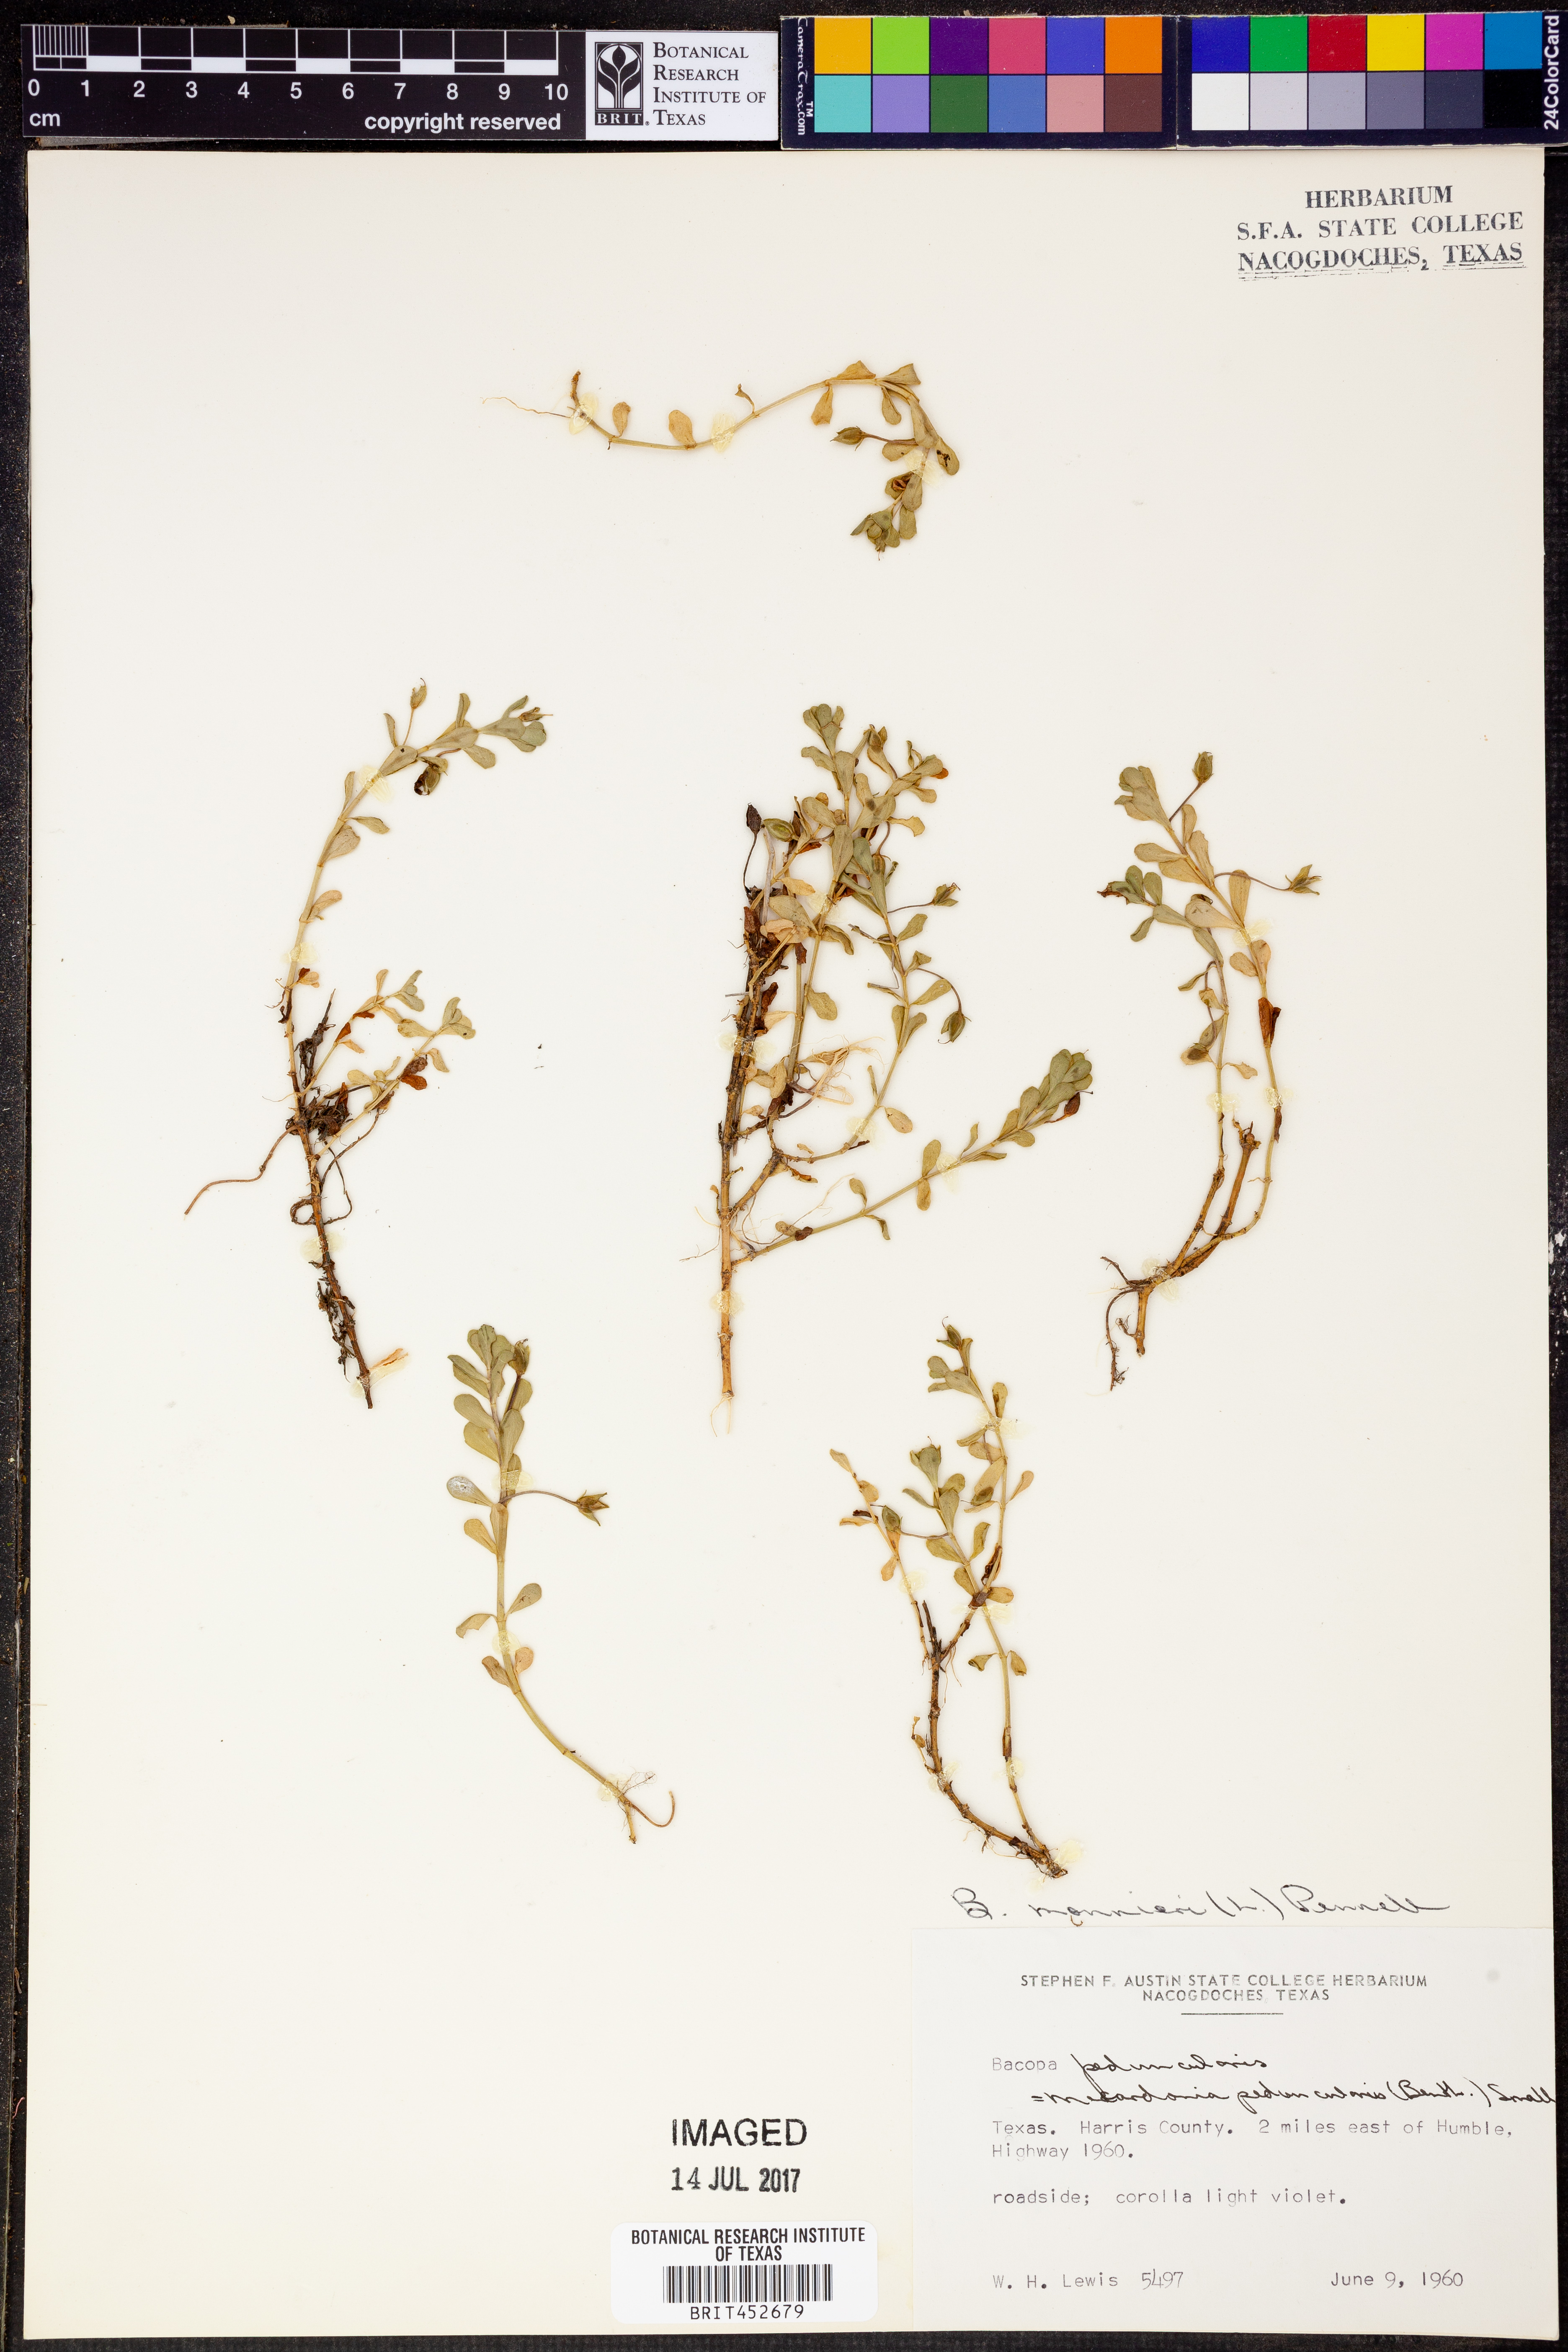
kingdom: Plantae
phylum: Tracheophyta
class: Magnoliopsida
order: Lamiales
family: Plantaginaceae
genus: Bacopa
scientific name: Bacopa monnieri
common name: Indian-pennywort
